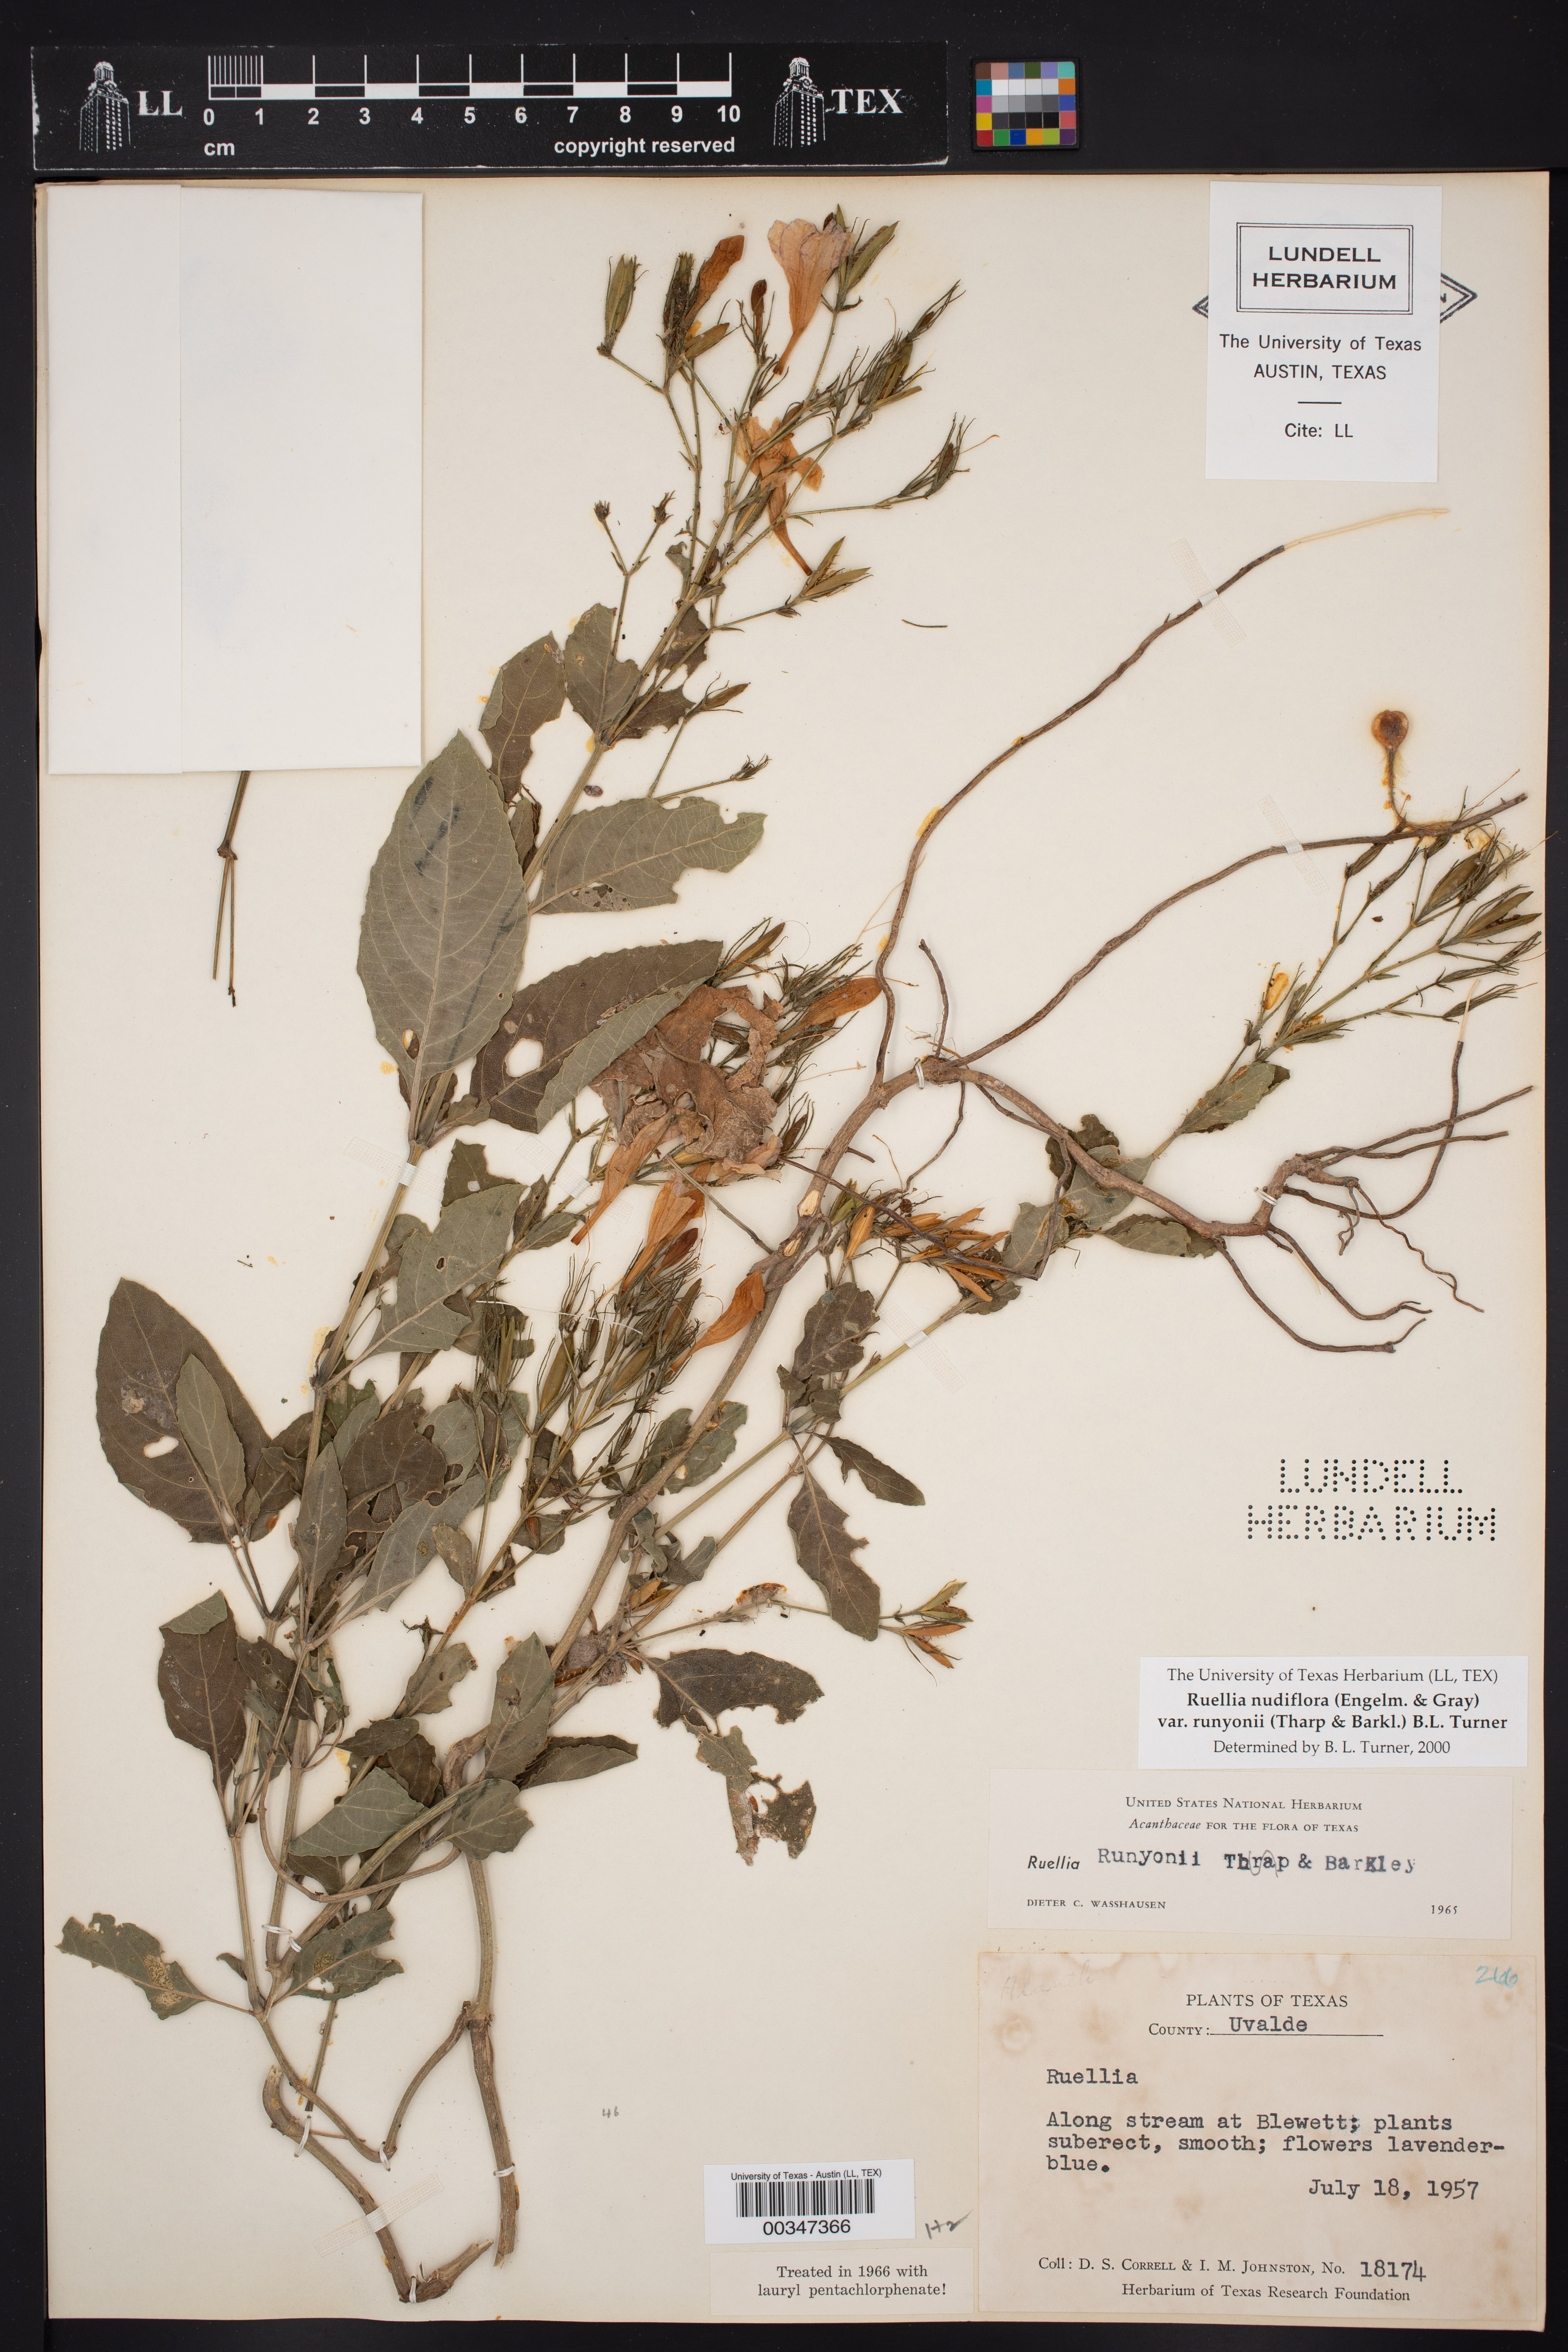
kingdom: Plantae
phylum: Tracheophyta
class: Magnoliopsida
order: Lamiales
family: Acanthaceae
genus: Ruellia
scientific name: Ruellia ciliatiflora
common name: Hairyflower wild petunia
